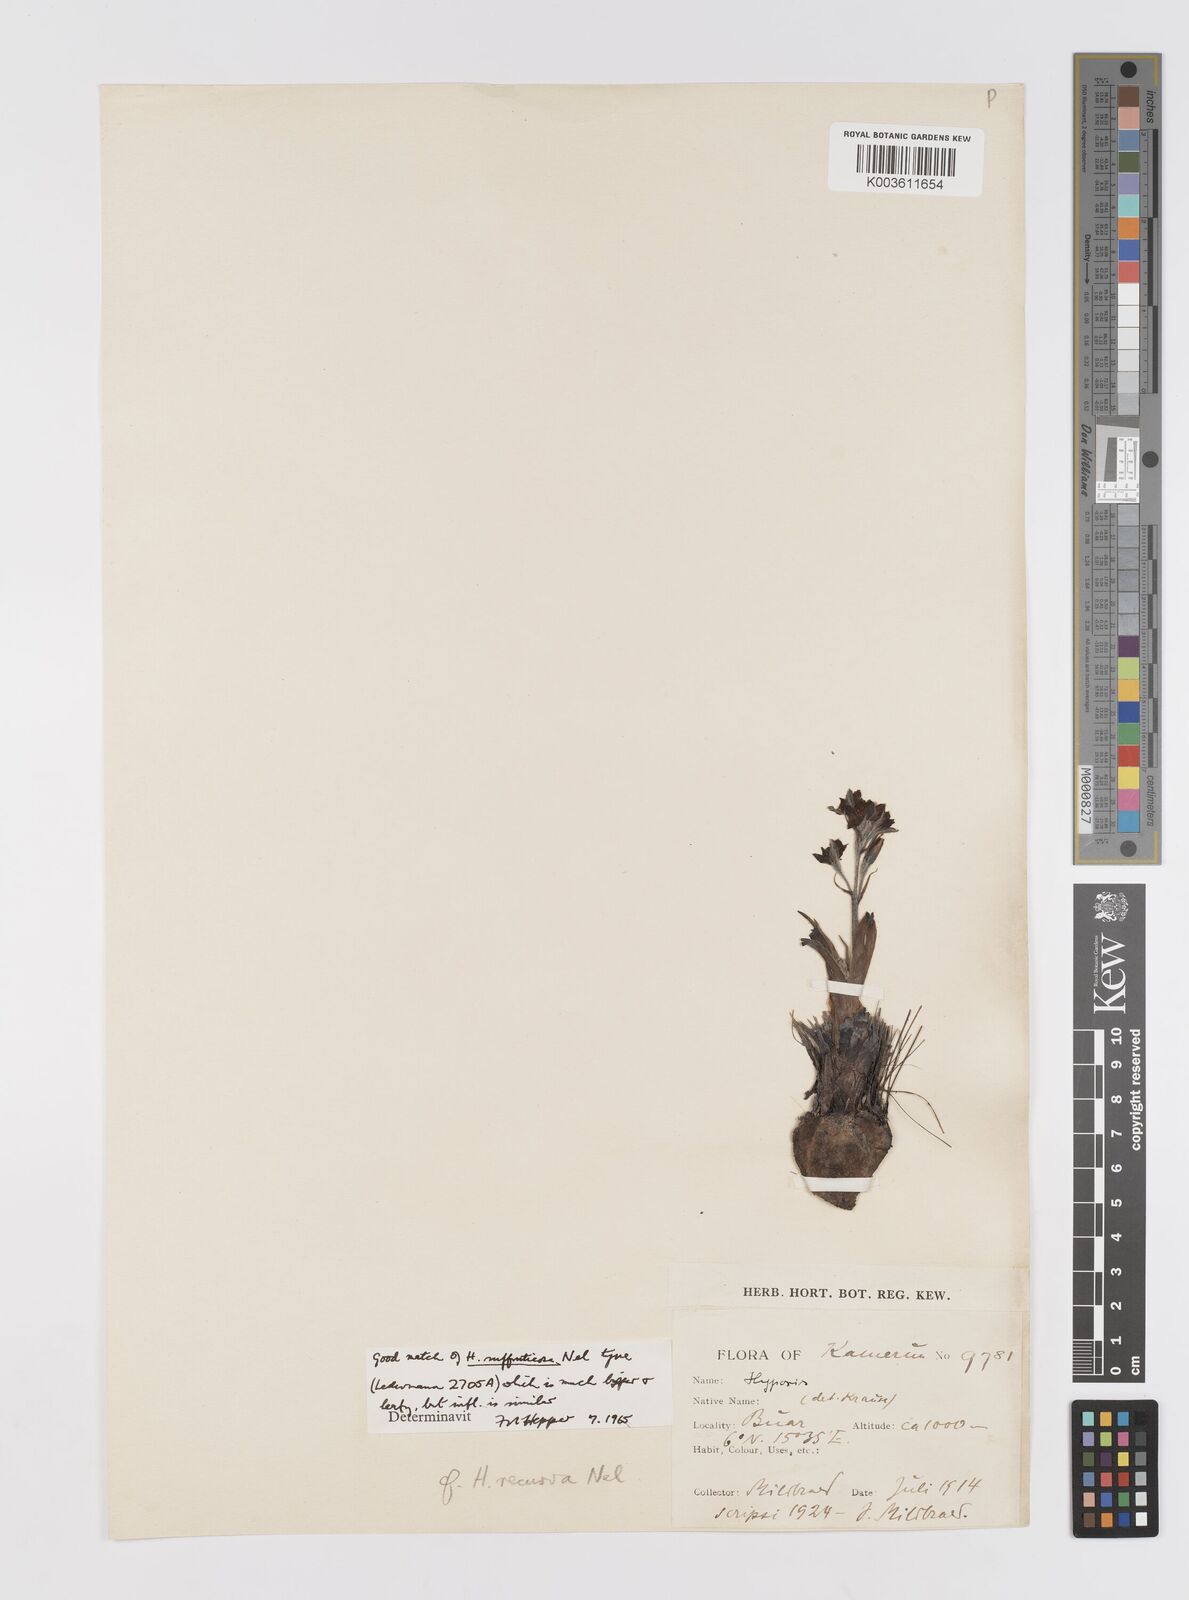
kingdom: Plantae
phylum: Tracheophyta
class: Liliopsida
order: Asparagales
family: Hypoxidaceae
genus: Hypoxis
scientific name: Hypoxis
